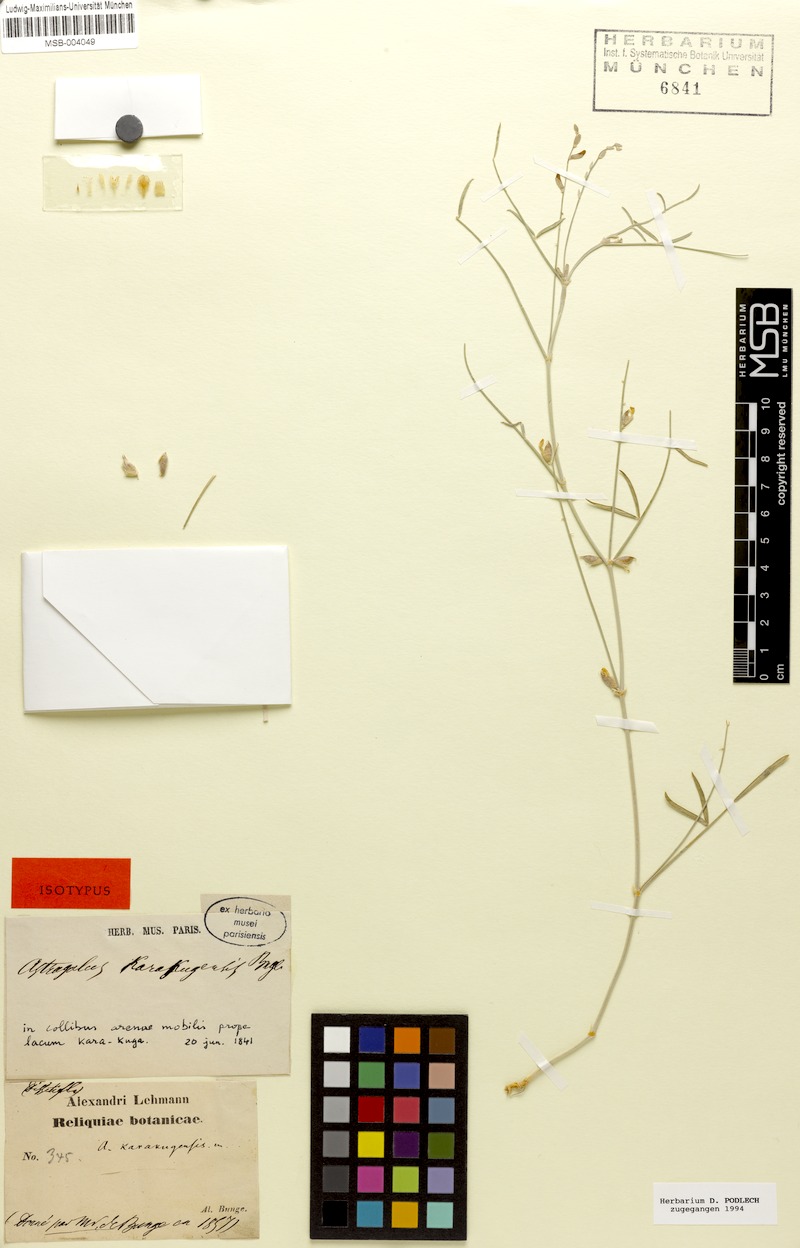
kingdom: Plantae
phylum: Tracheophyta
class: Magnoliopsida
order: Fabales
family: Fabaceae
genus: Astragalus
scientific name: Astragalus karakugensis
